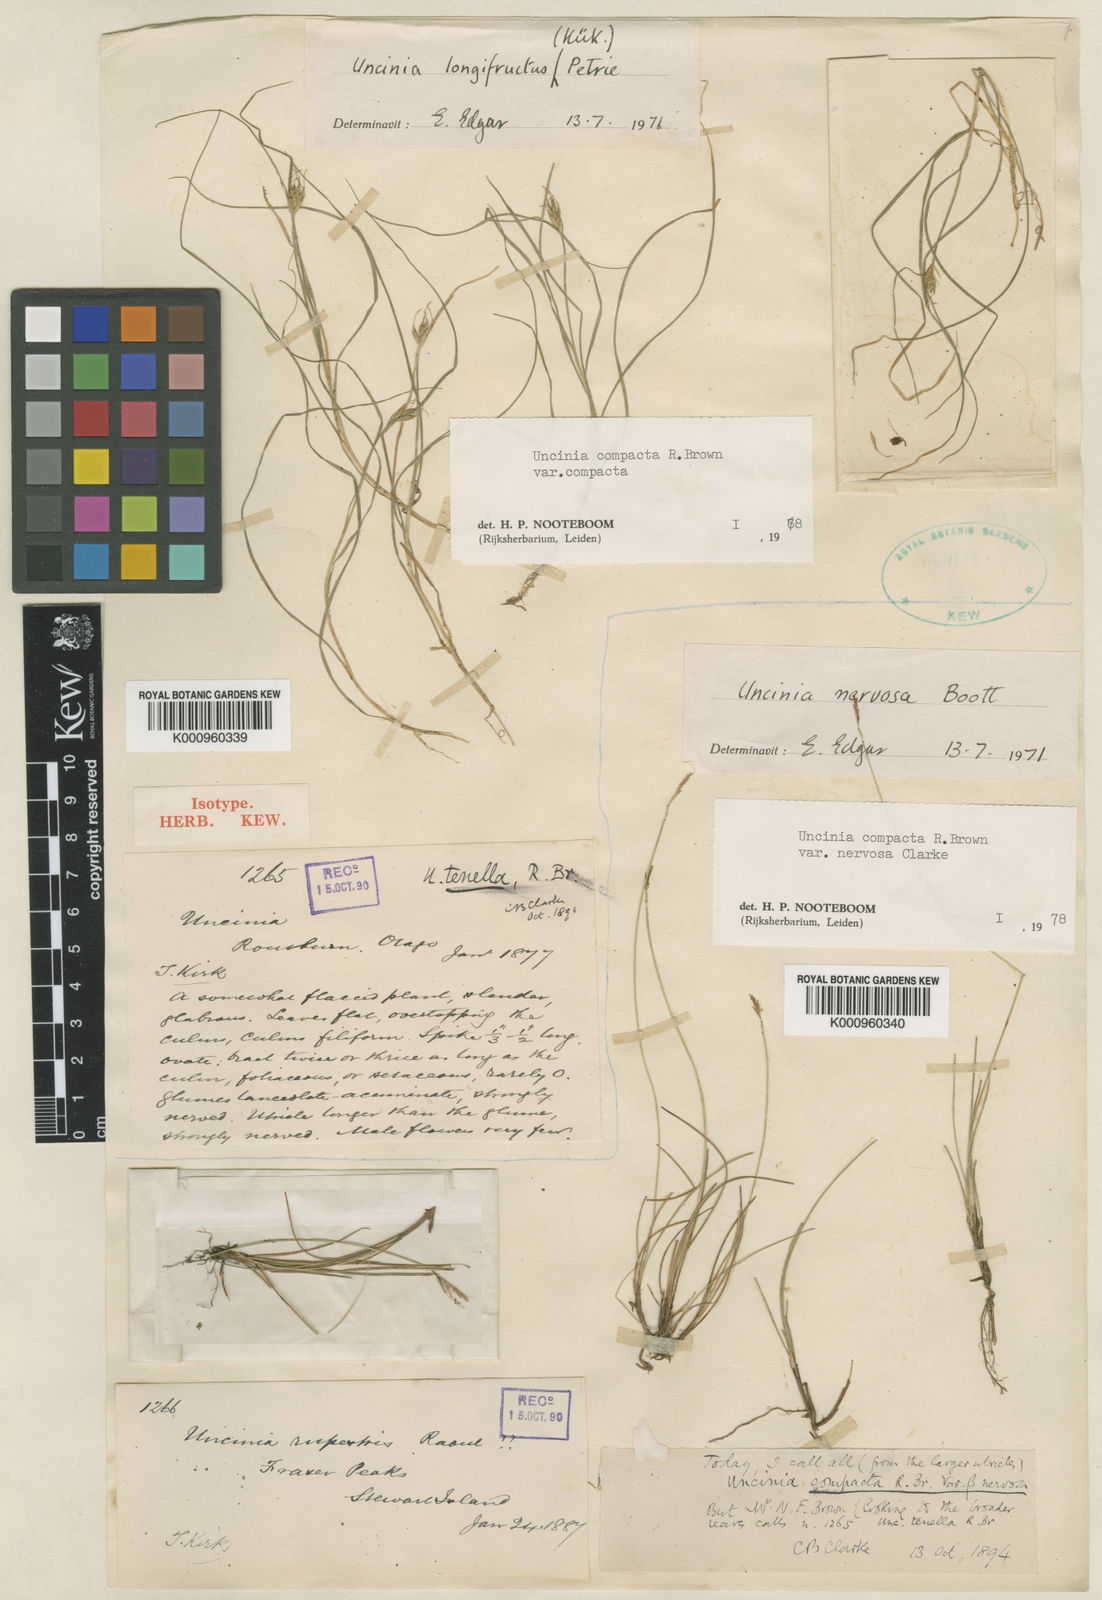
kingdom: Plantae
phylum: Tracheophyta
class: Liliopsida
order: Poales
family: Cyperaceae
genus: Carex
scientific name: Carex austrotenella
